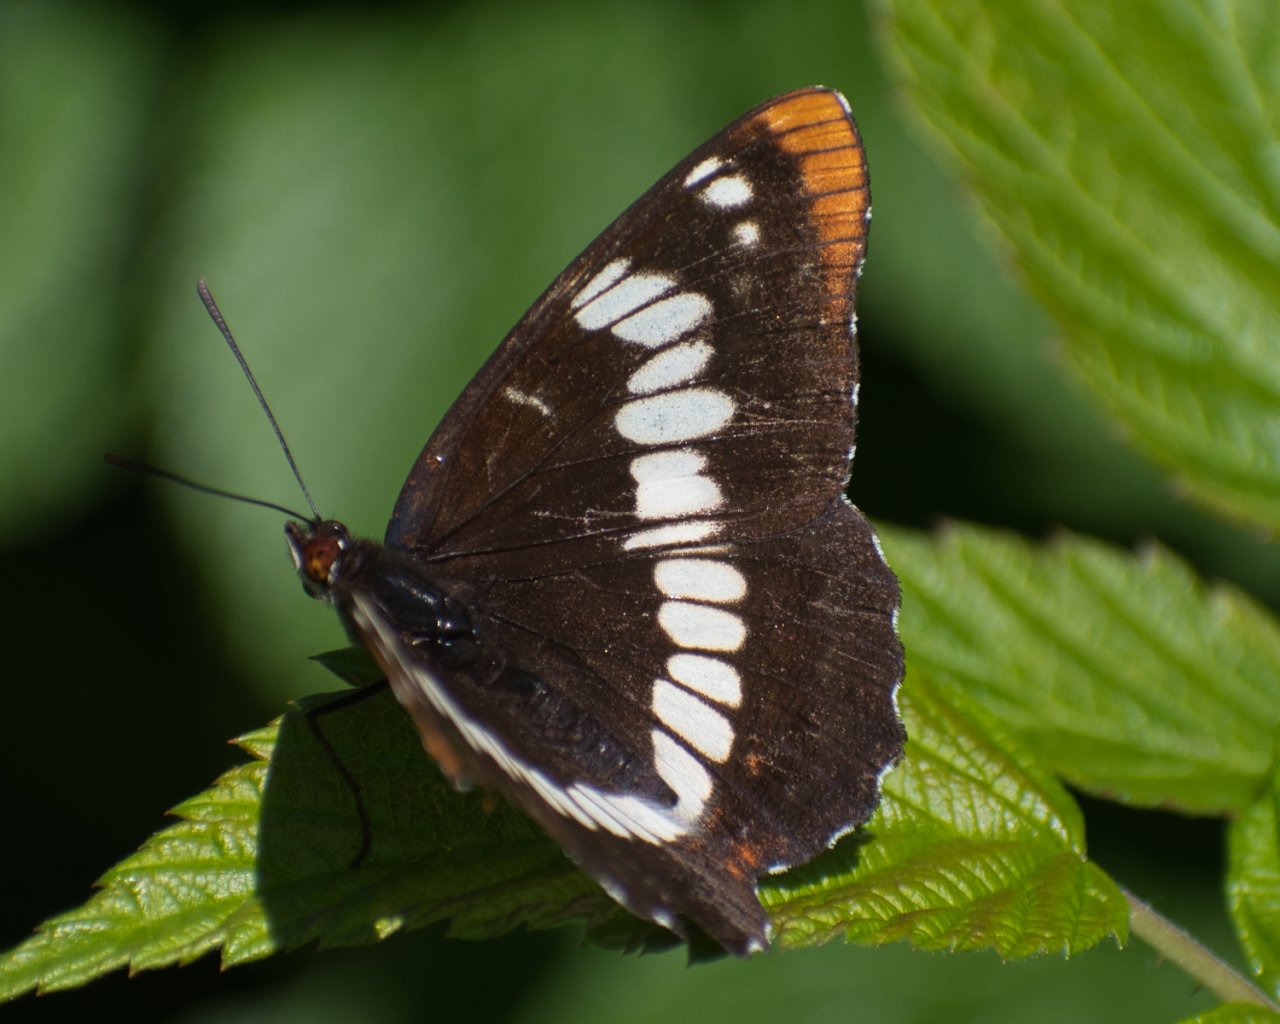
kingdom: Animalia
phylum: Arthropoda
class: Insecta
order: Lepidoptera
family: Nymphalidae
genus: Limenitis
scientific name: Limenitis lorquini
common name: Lorquin's Admiral
